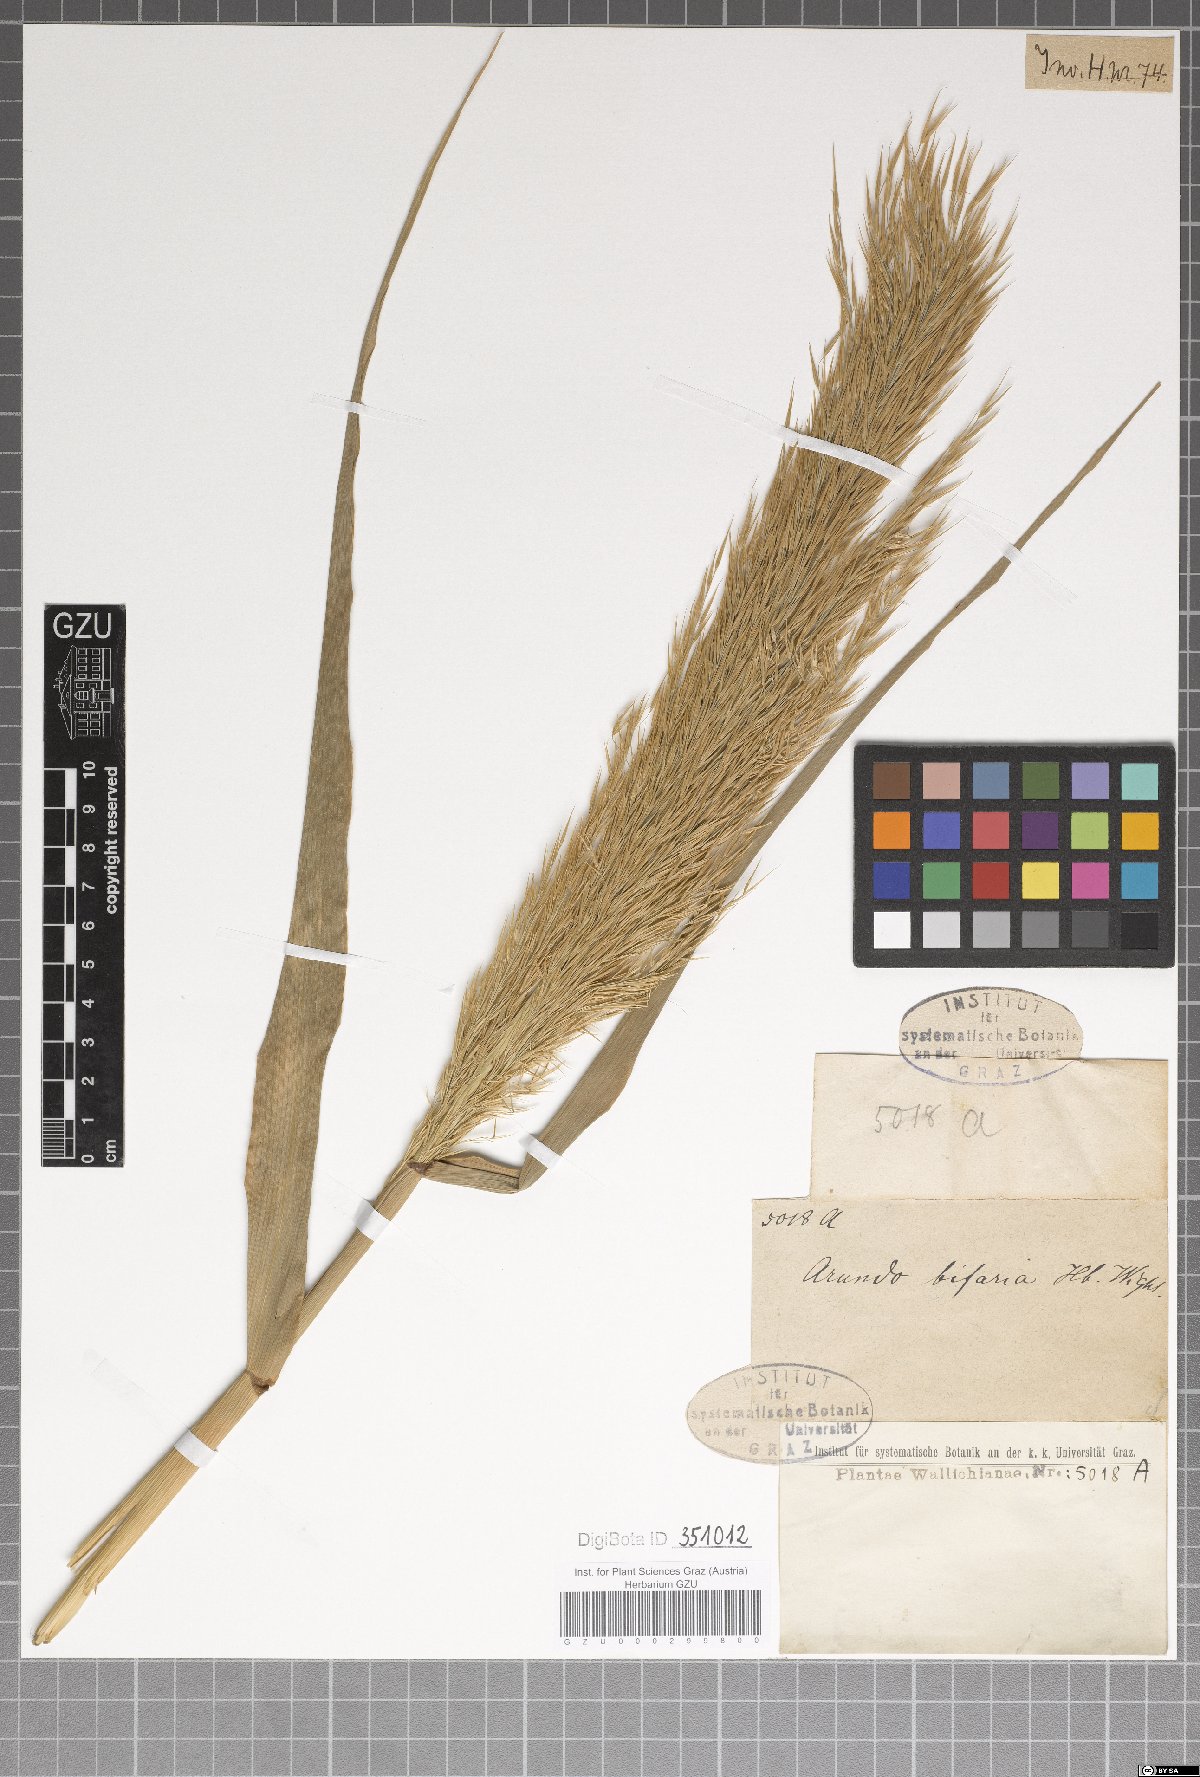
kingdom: Plantae
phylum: Tracheophyta
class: Liliopsida
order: Poales
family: Poaceae
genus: Arundo
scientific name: Arundo donax
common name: Giant reed
